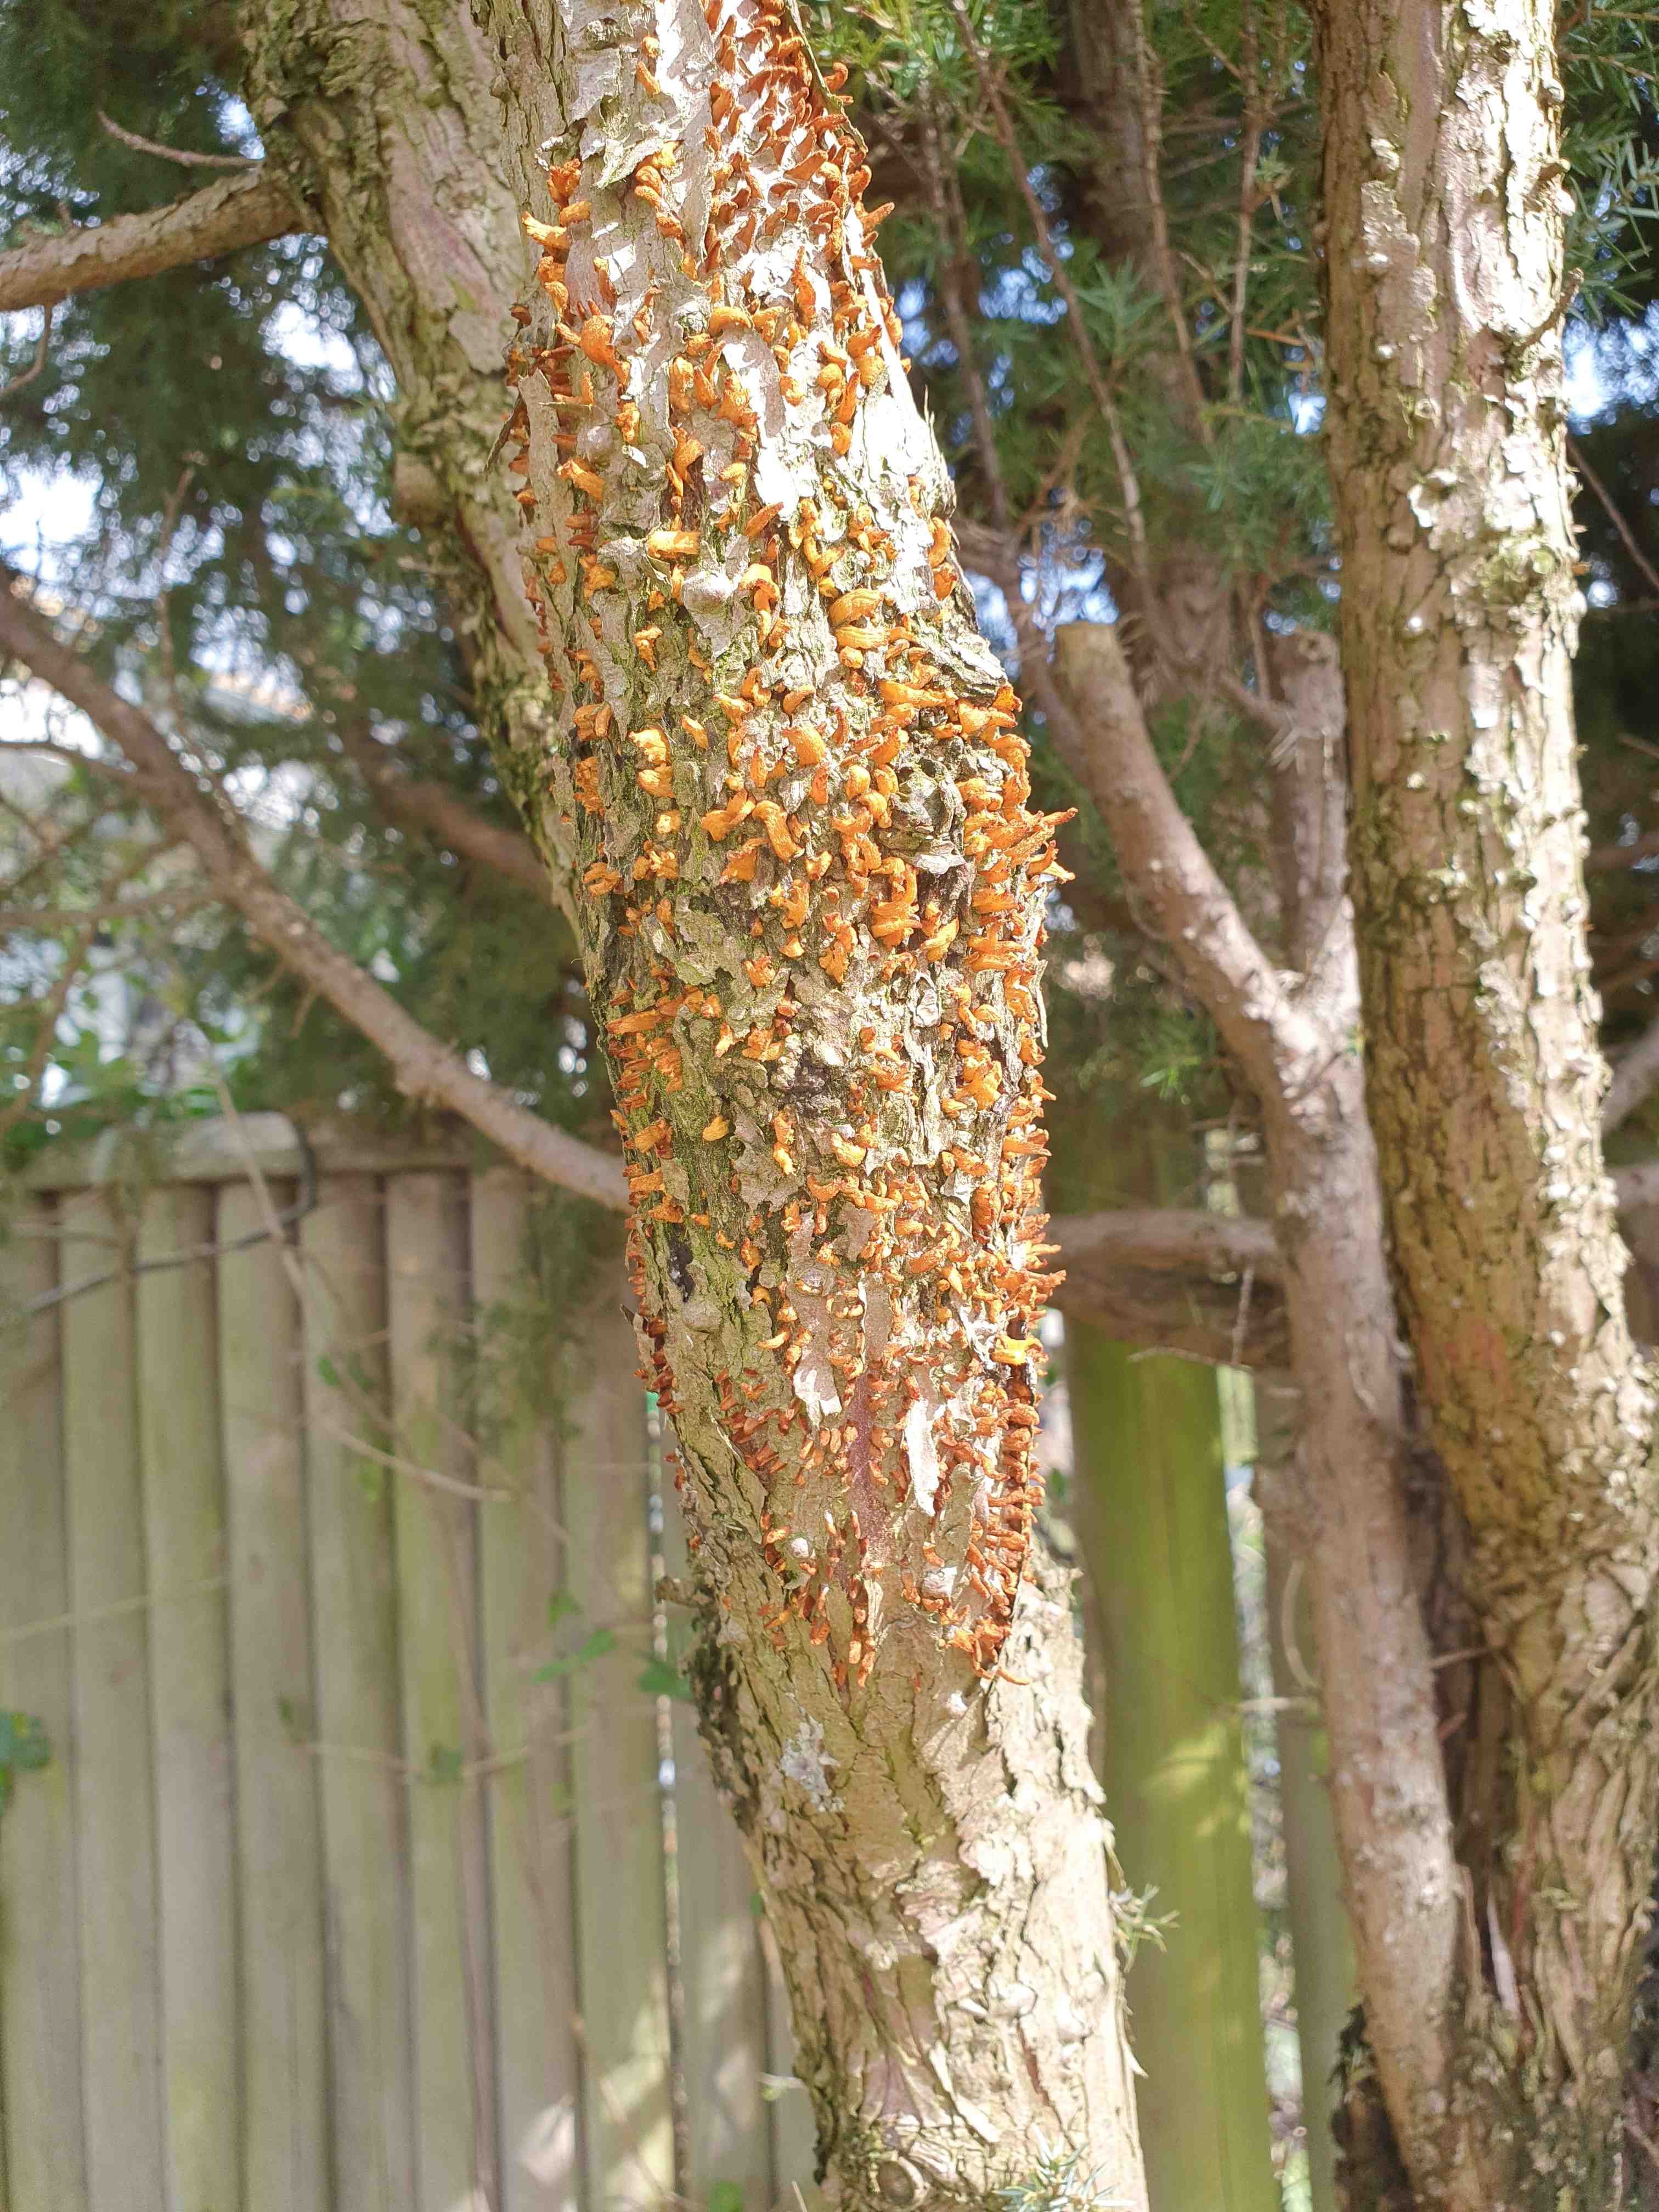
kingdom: Fungi
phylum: Basidiomycota
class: Pucciniomycetes
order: Pucciniales
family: Gymnosporangiaceae
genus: Gymnosporangium
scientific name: Gymnosporangium clavariiforme
